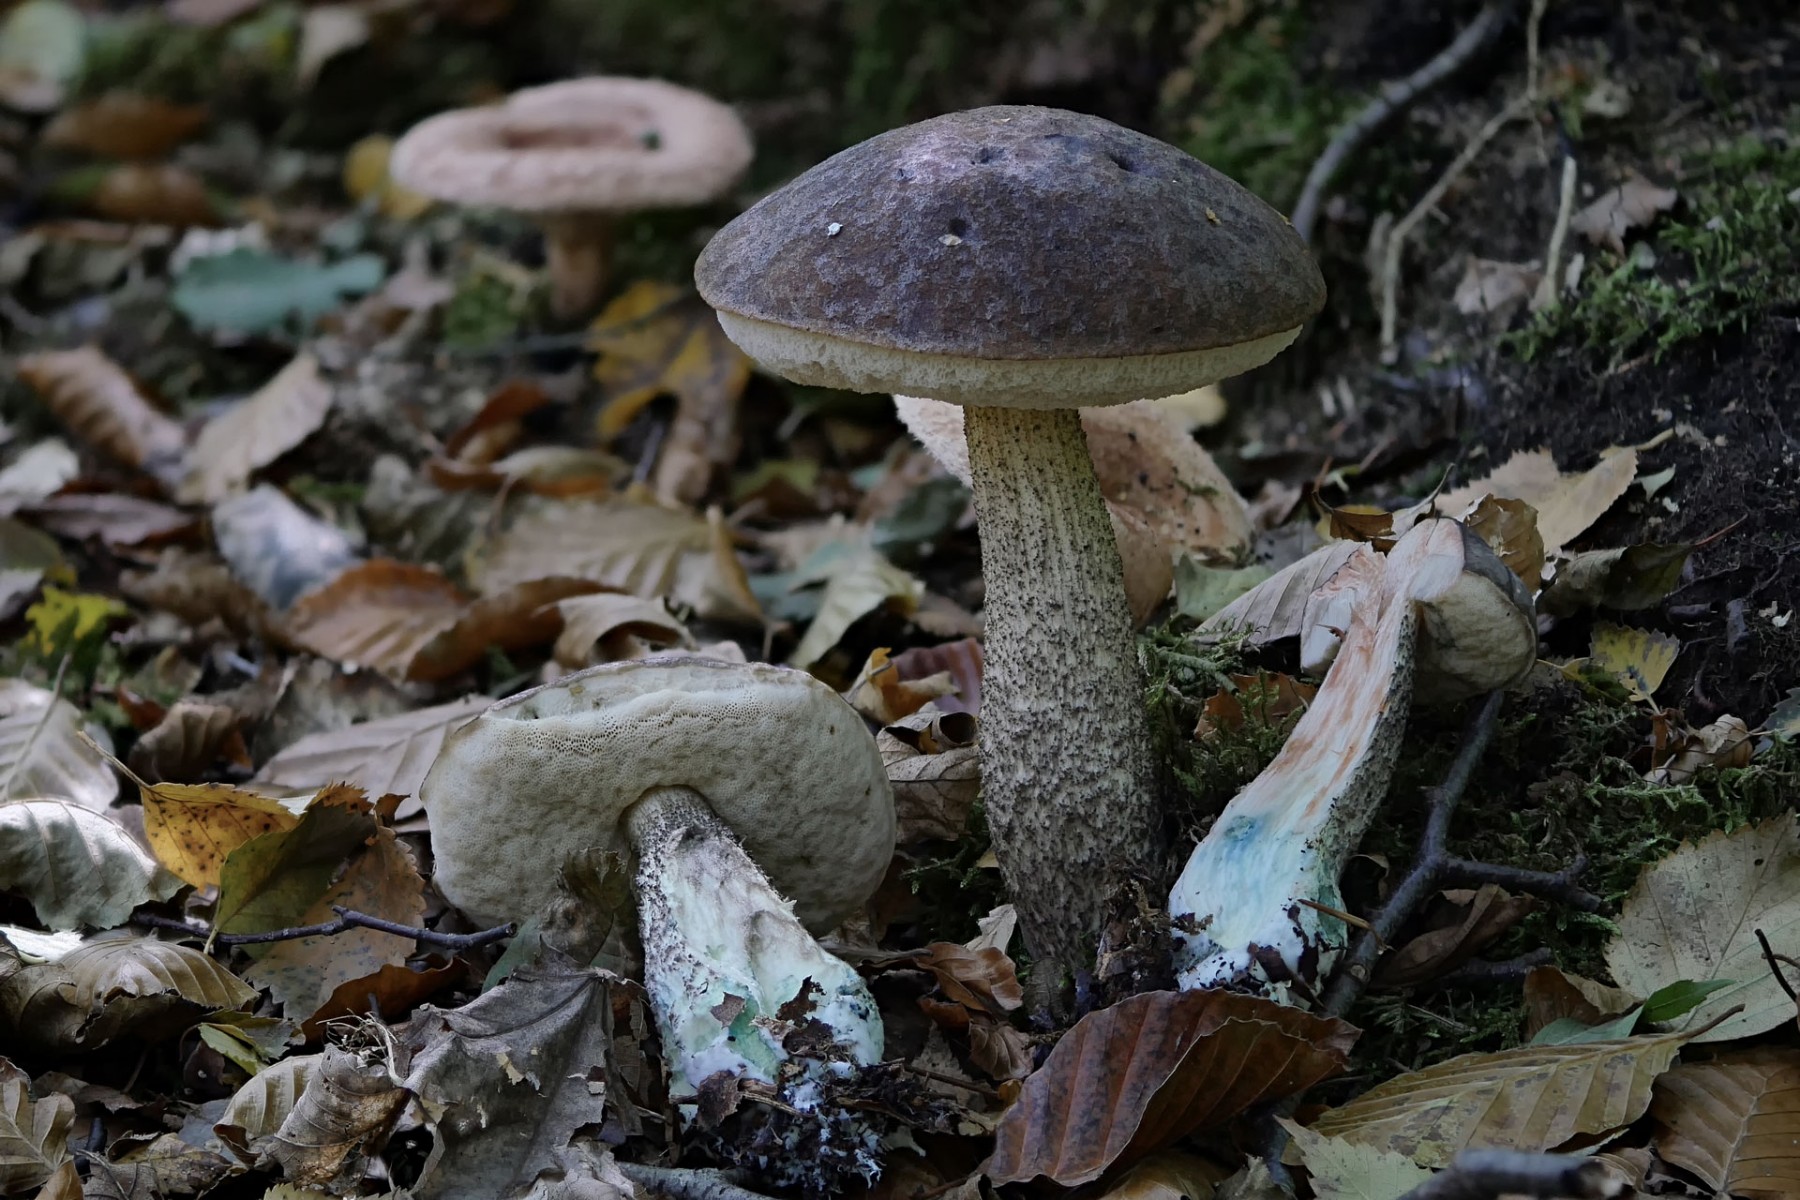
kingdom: Fungi
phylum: Basidiomycota
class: Agaricomycetes
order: Boletales
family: Boletaceae
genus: Leccinum
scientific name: Leccinum variicolor
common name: flammet skælrørhat
